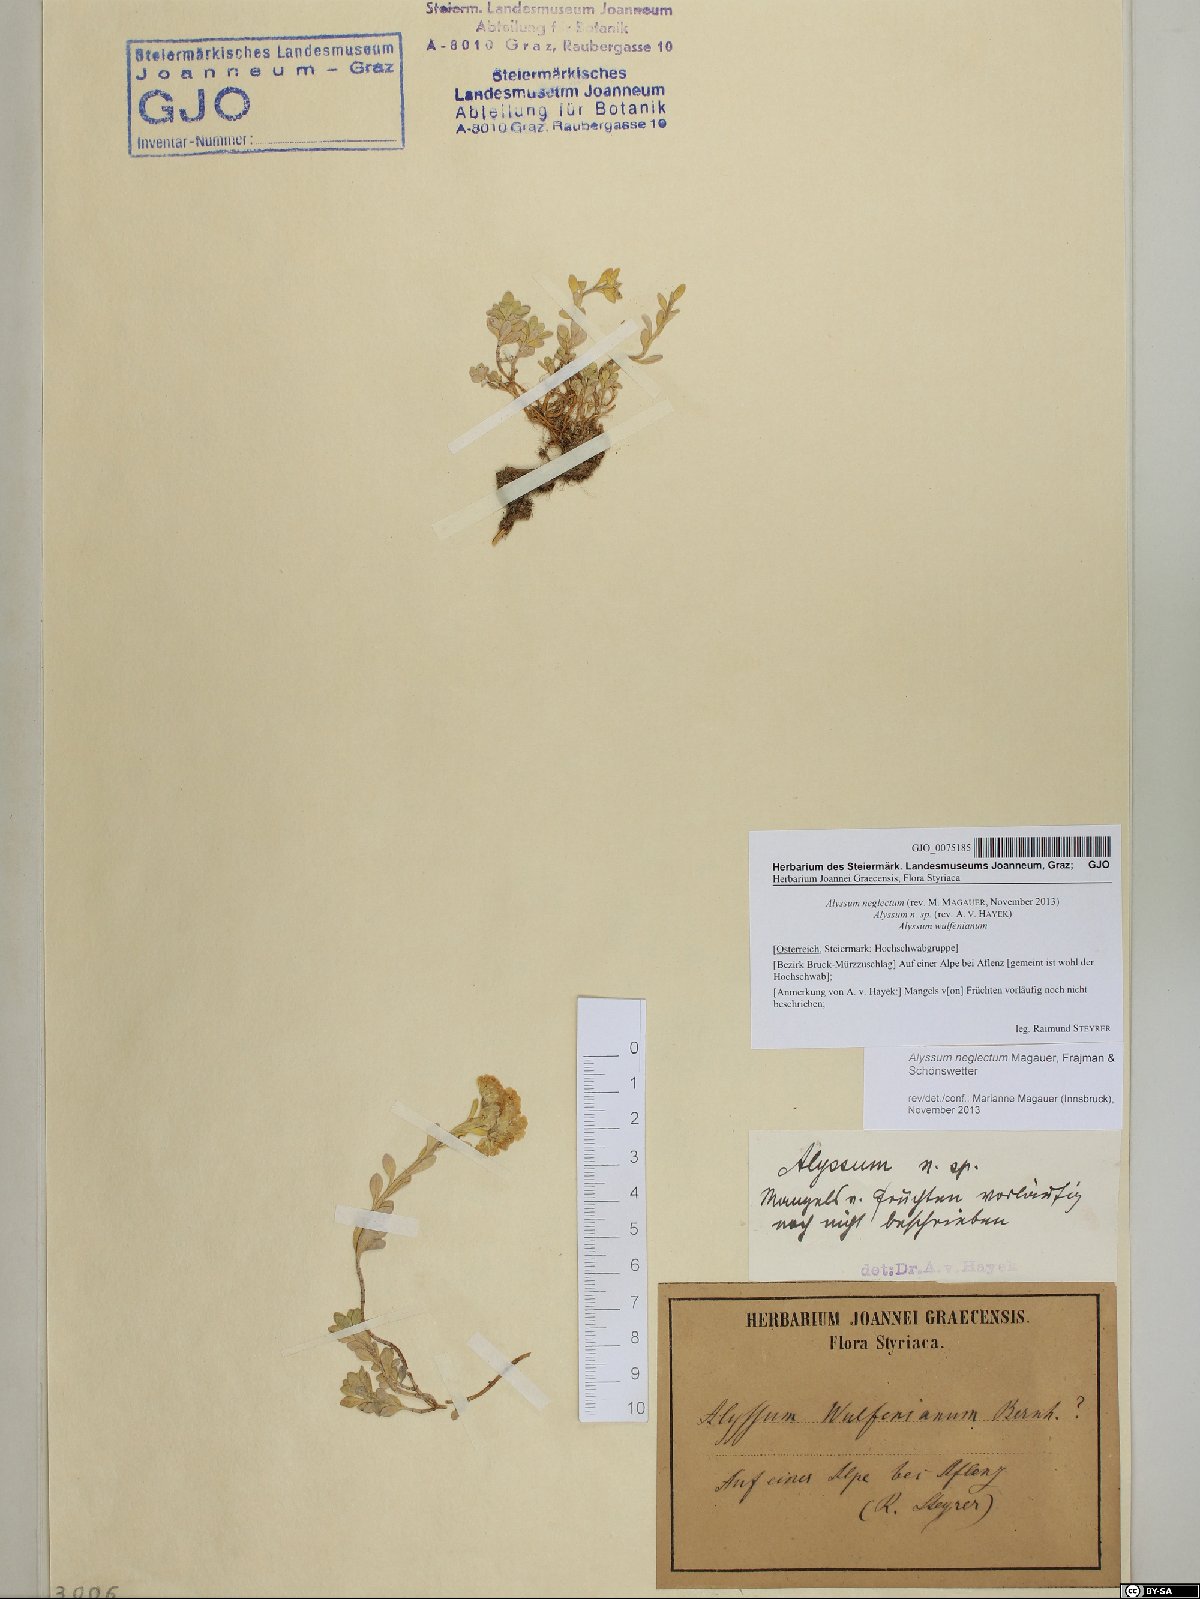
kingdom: Plantae
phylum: Tracheophyta
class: Magnoliopsida
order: Brassicales
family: Brassicaceae
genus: Alyssum
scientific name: Alyssum neglectum
